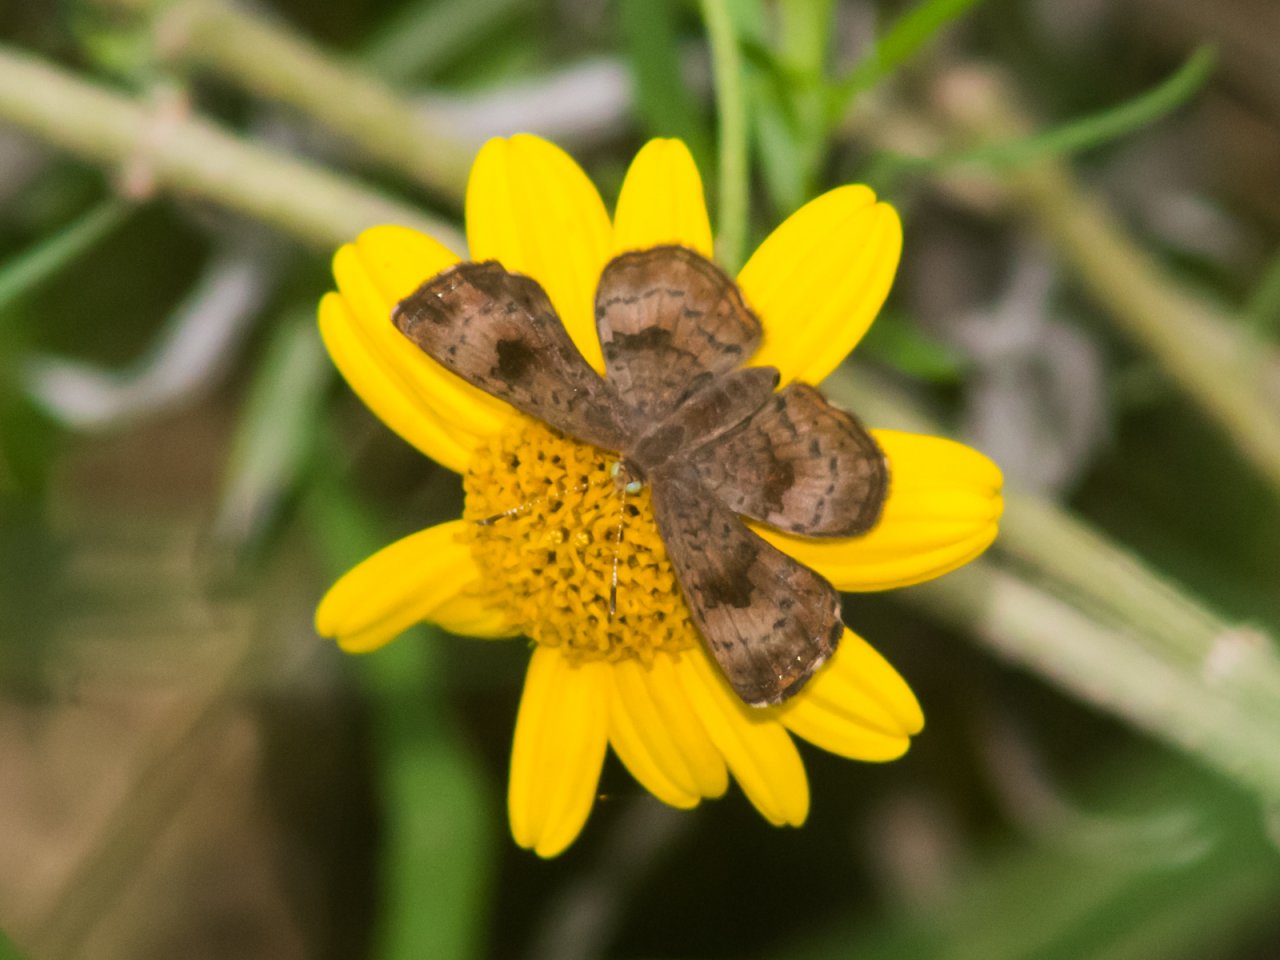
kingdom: Animalia
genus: Calephelis
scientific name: Calephelis nemesis
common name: Fatal Metalmark
